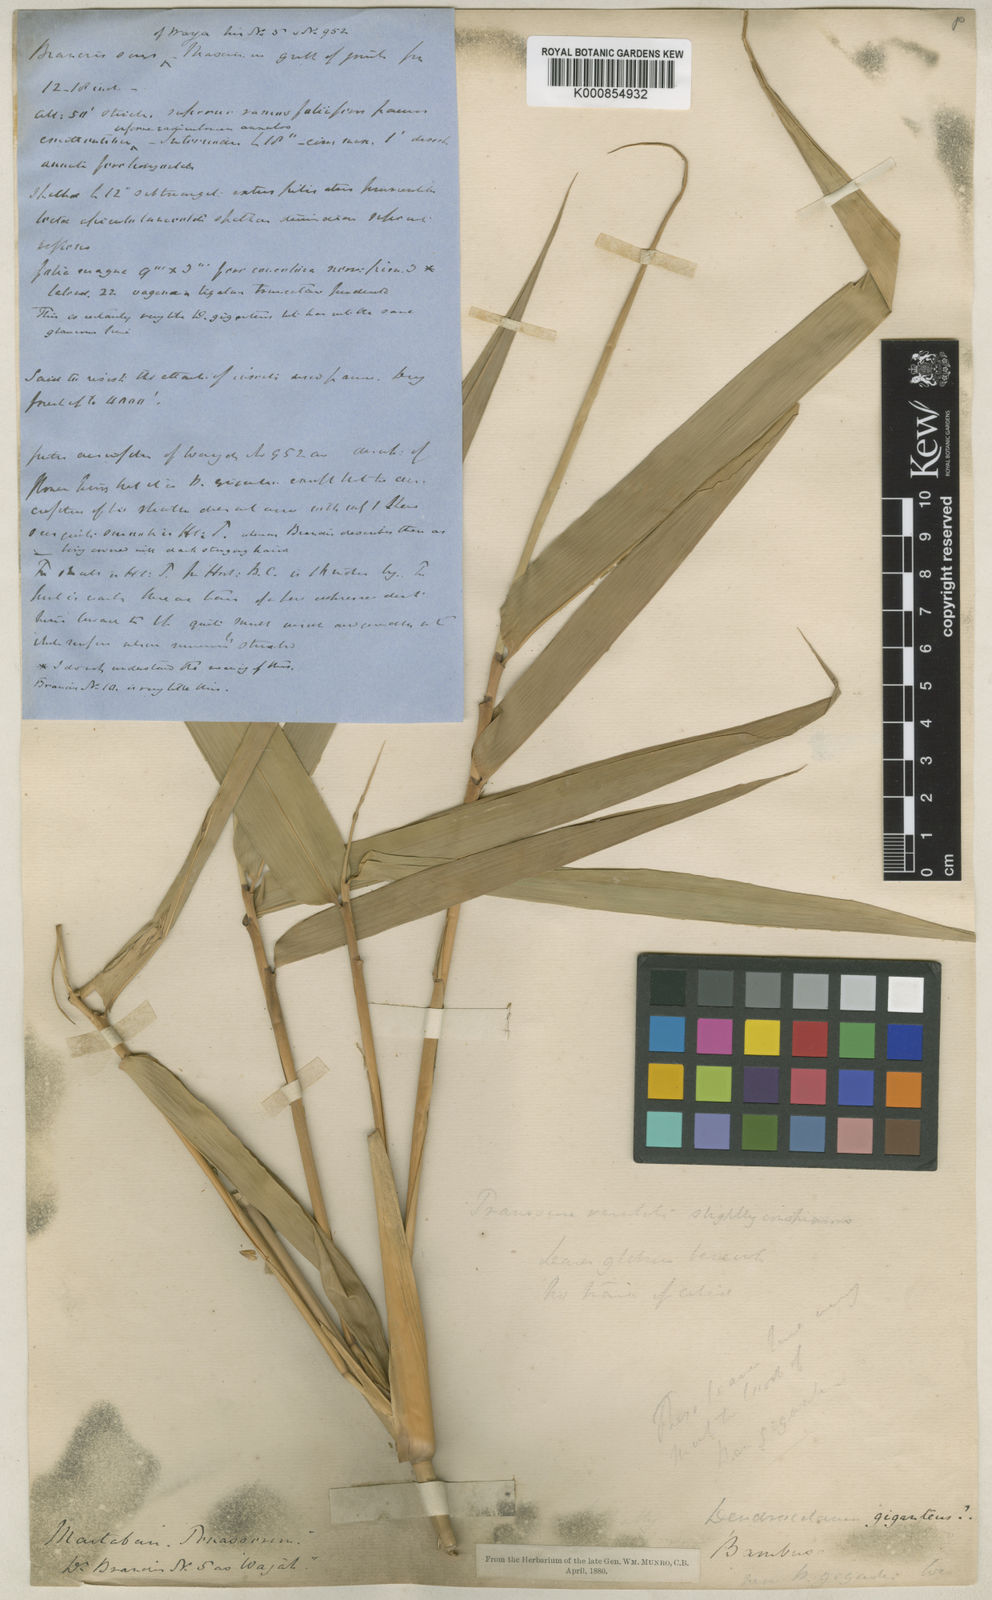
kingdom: Plantae
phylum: Tracheophyta
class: Liliopsida
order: Poales
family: Poaceae
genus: Dendrocalamus
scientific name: Dendrocalamus giganteus
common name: Giant bamboo
